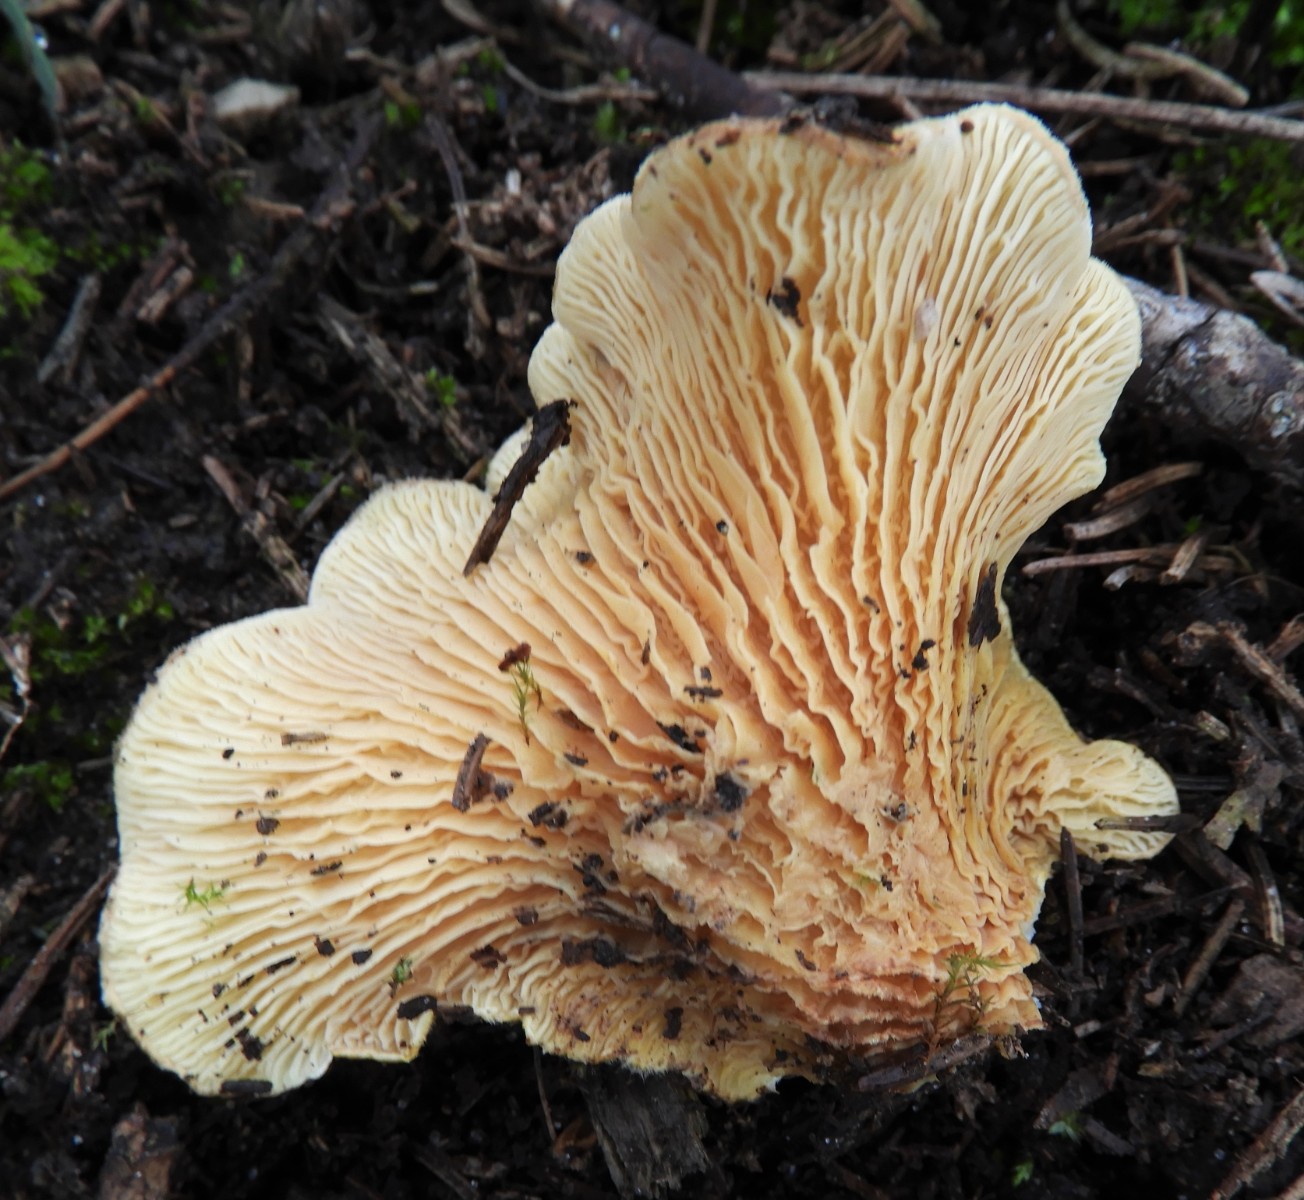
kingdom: Fungi
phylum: Basidiomycota
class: Agaricomycetes
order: Boletales
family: Tapinellaceae
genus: Tapinella
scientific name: Tapinella panuoides
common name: tømmer-viftesvamp
